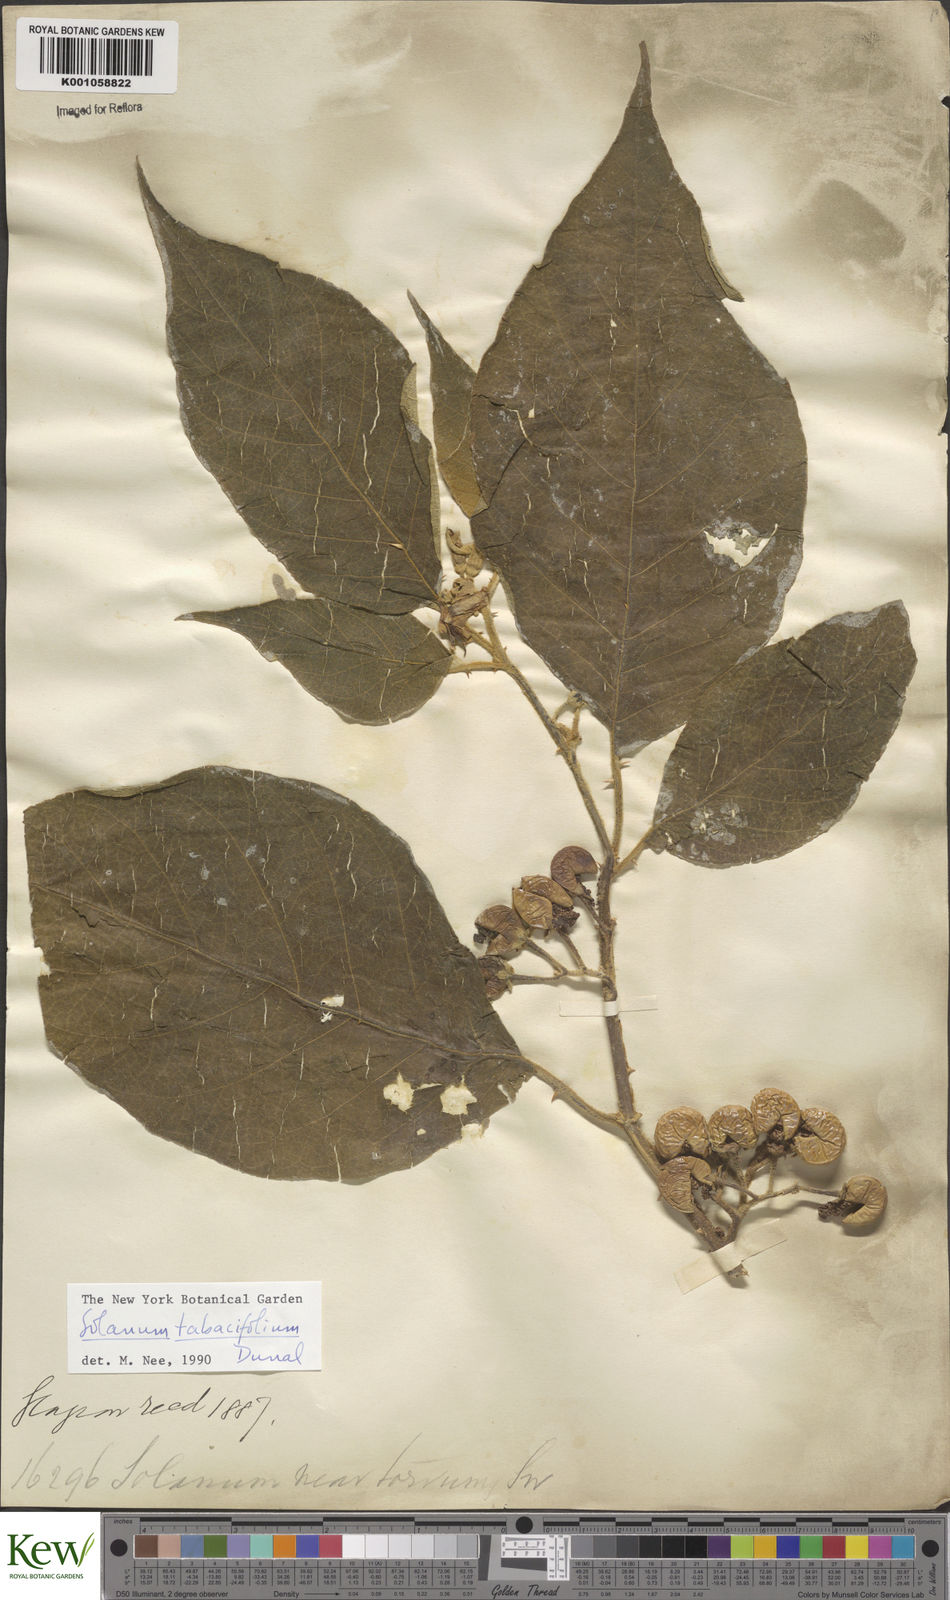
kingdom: Plantae
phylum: Tracheophyta
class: Magnoliopsida
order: Solanales
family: Solanaceae
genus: Solanum
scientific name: Solanum scuticum
